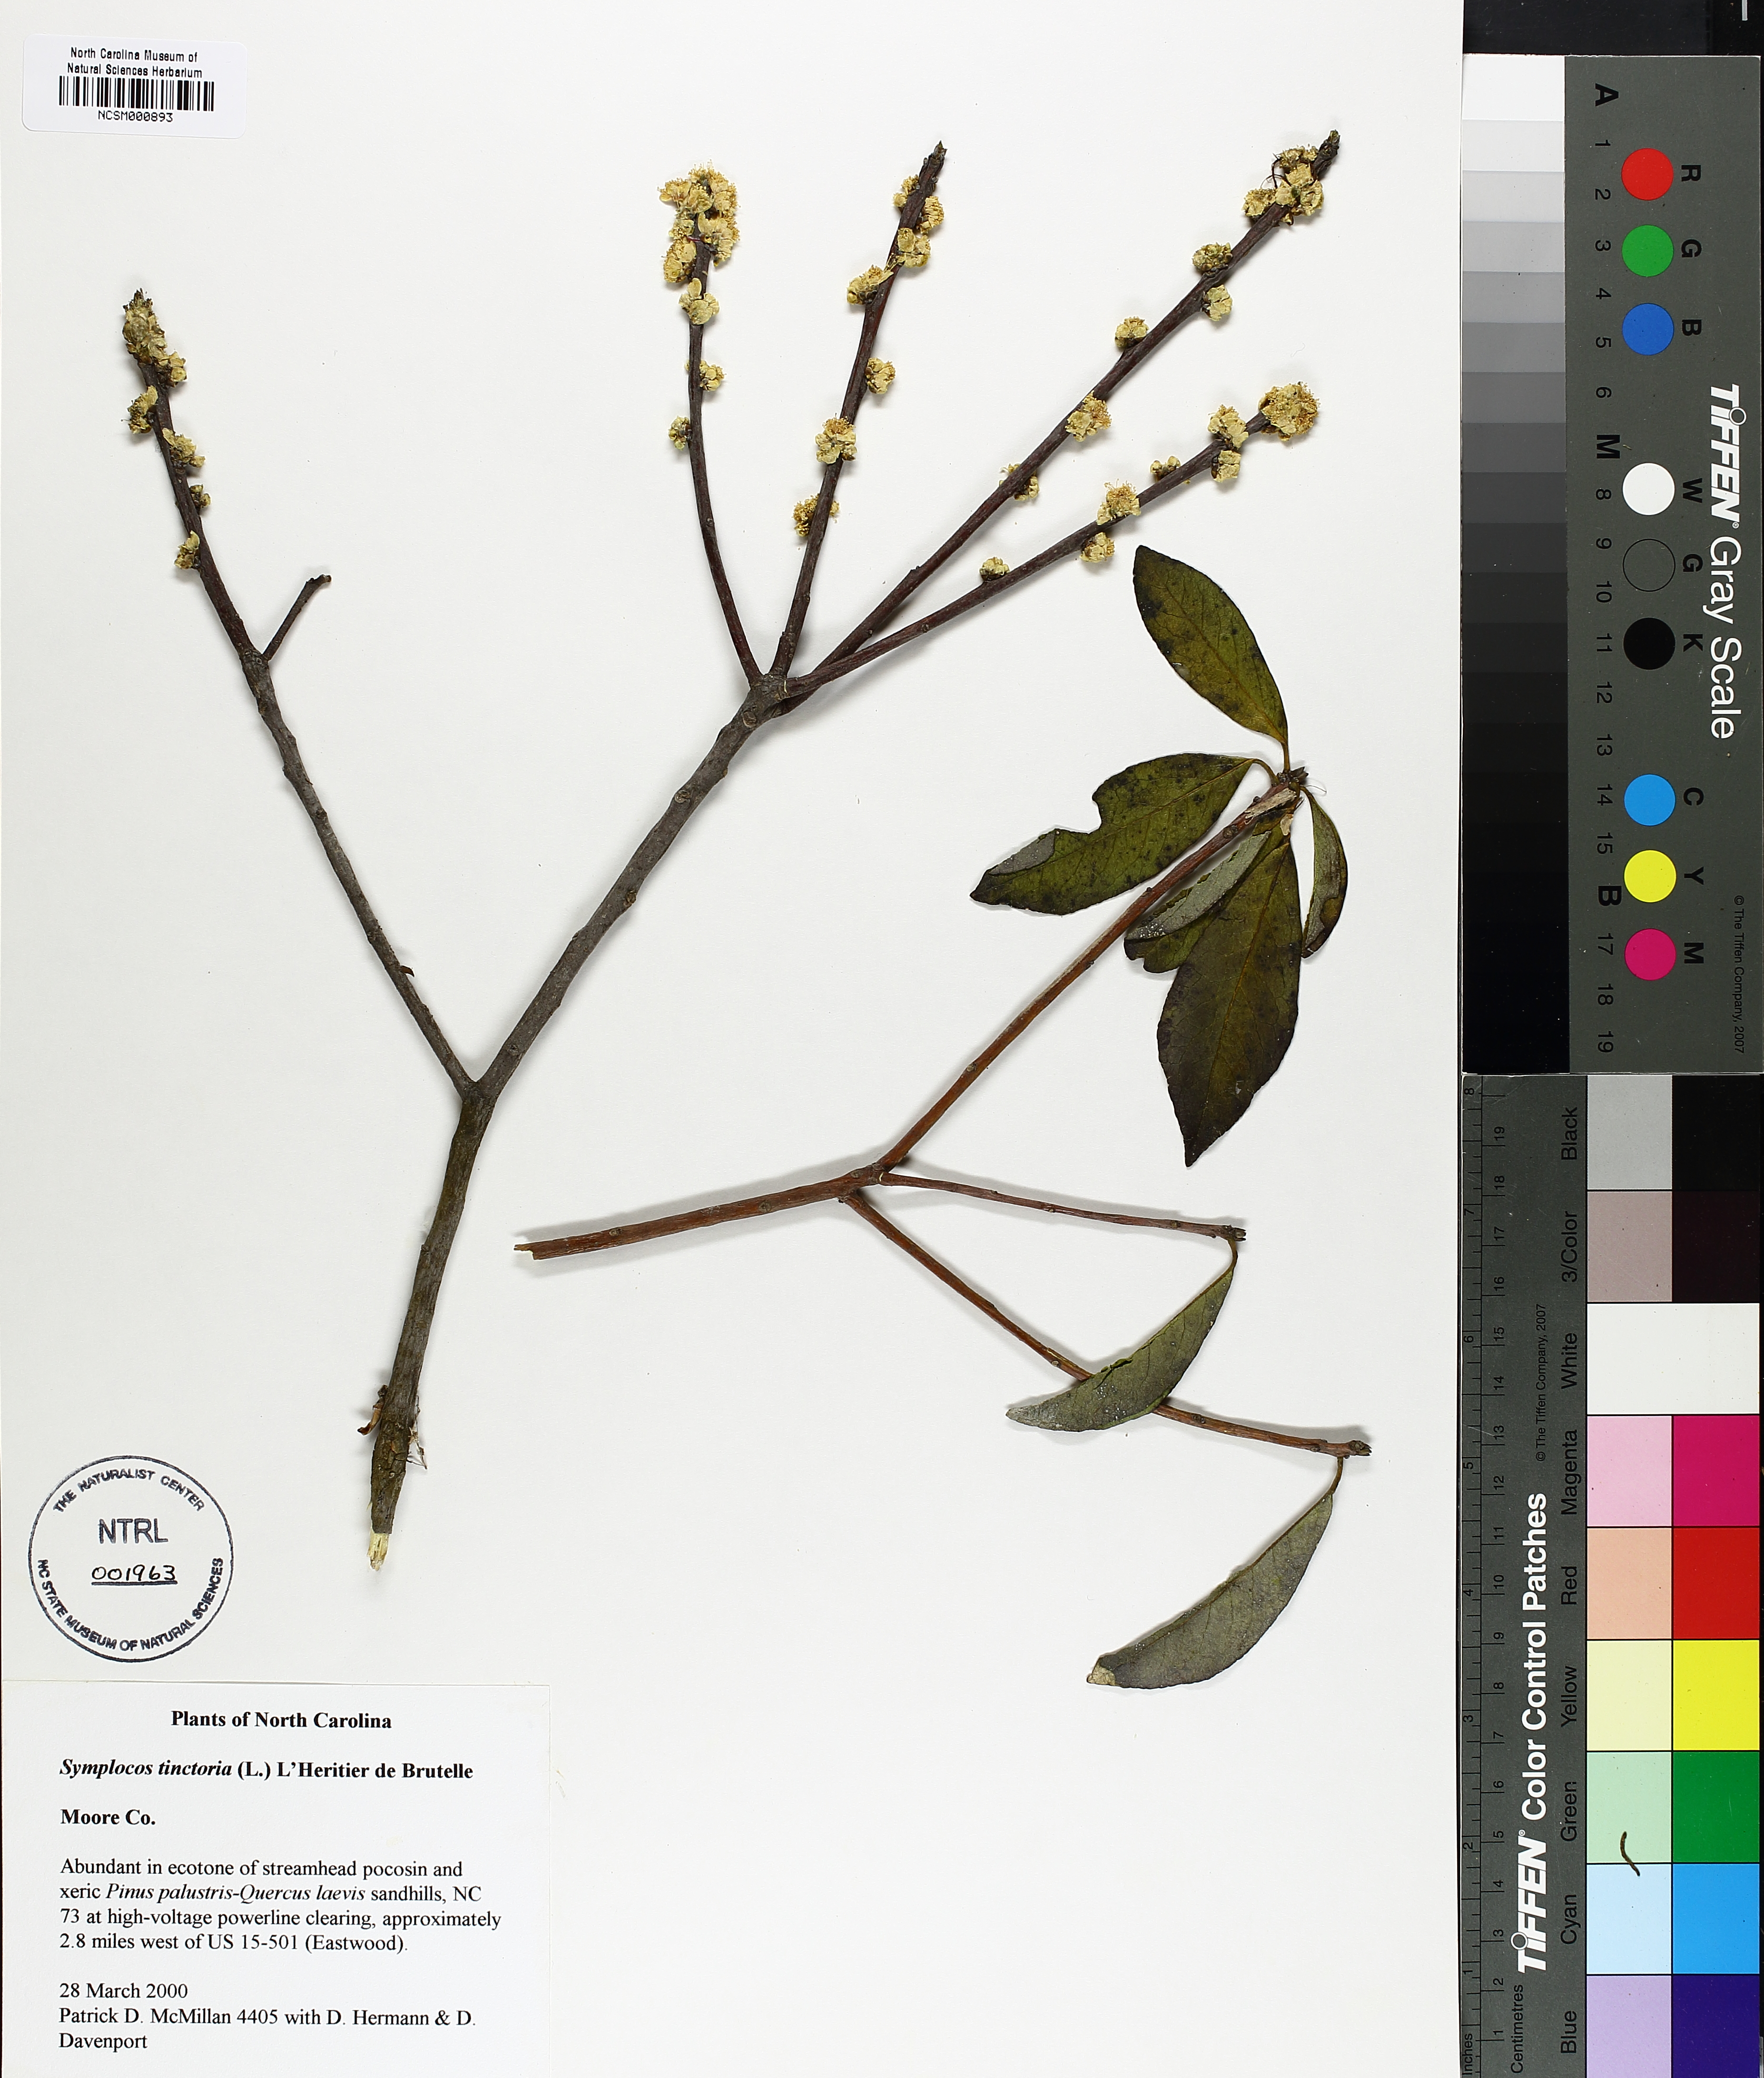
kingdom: Plantae
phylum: Tracheophyta
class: Magnoliopsida
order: Ericales
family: Symplocaceae
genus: Symplocos
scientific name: Symplocos tinctoria
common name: Horse-sugar
